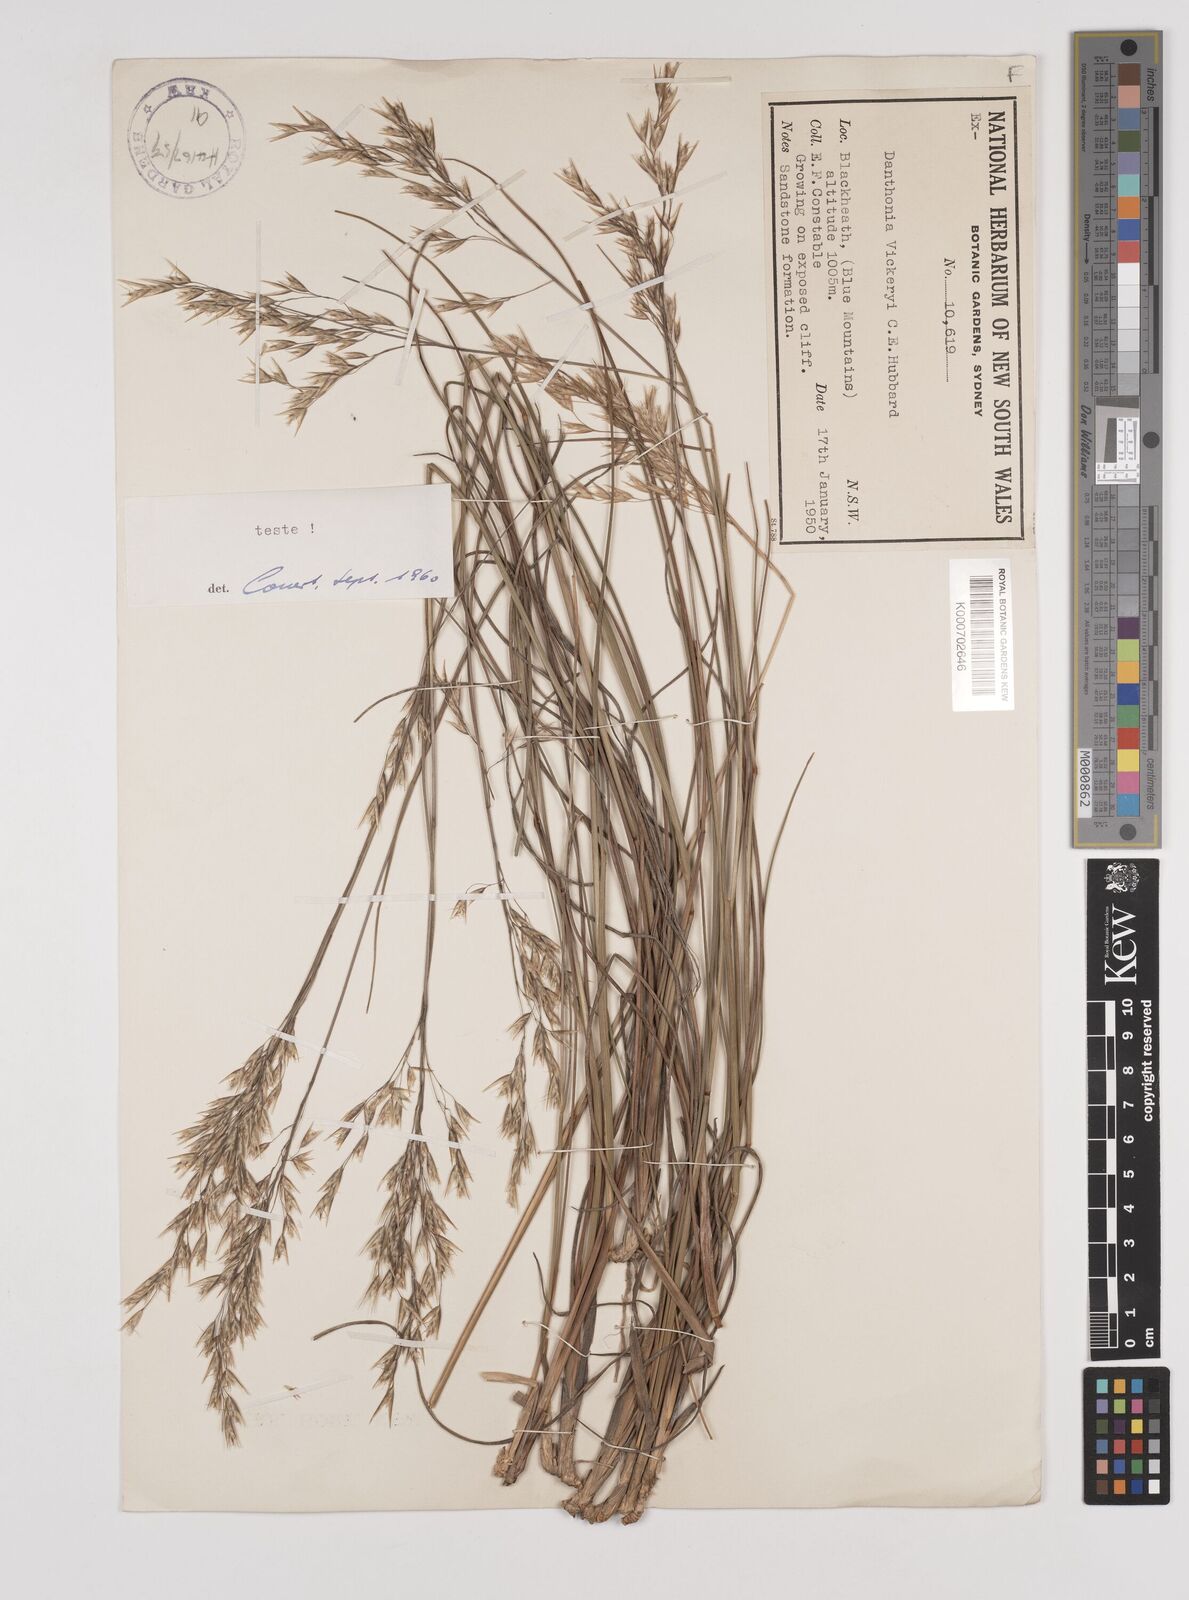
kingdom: Plantae
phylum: Tracheophyta
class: Liliopsida
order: Poales
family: Poaceae
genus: Plinthanthesis
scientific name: Plinthanthesis urvillei
